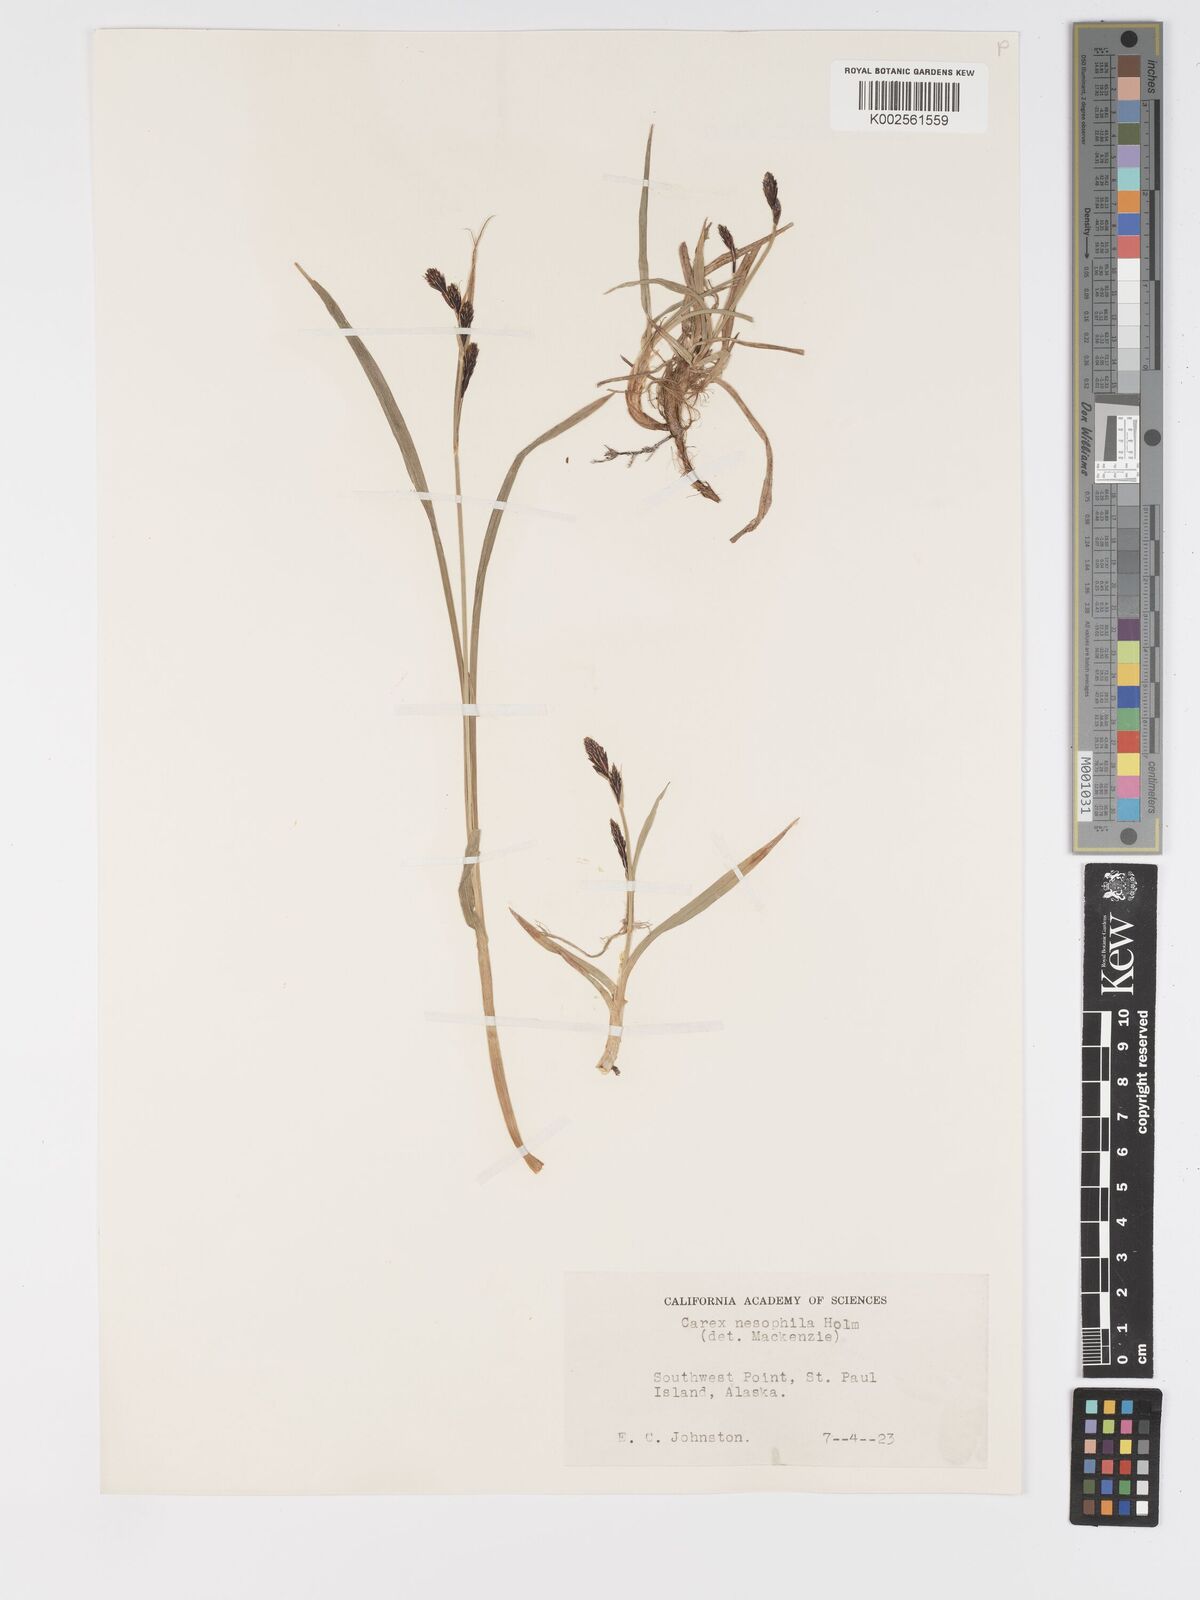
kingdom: Plantae
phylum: Tracheophyta
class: Liliopsida
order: Poales
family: Cyperaceae
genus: Carex
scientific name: Carex microchaeta
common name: Bering sea sedge
